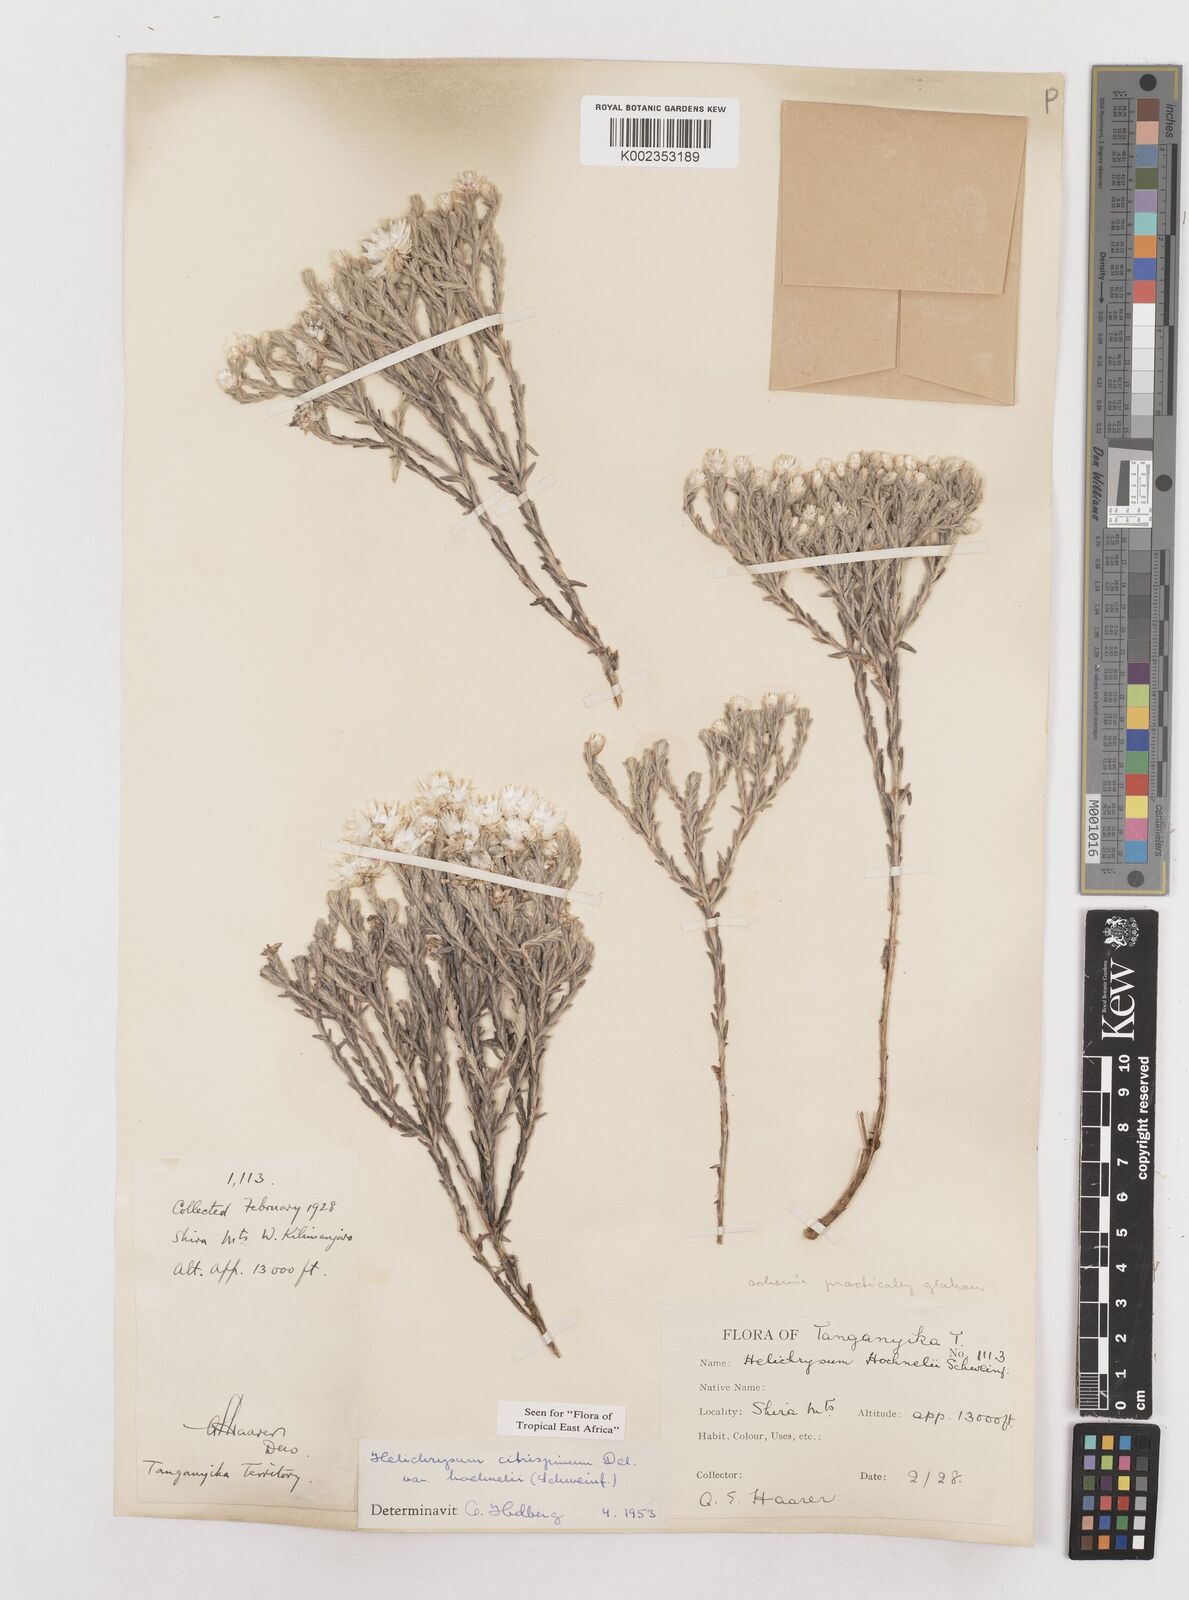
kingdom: Plantae
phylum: Tracheophyta
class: Magnoliopsida
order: Asterales
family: Asteraceae
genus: Helichrysum
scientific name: Helichrysum citrispinum
